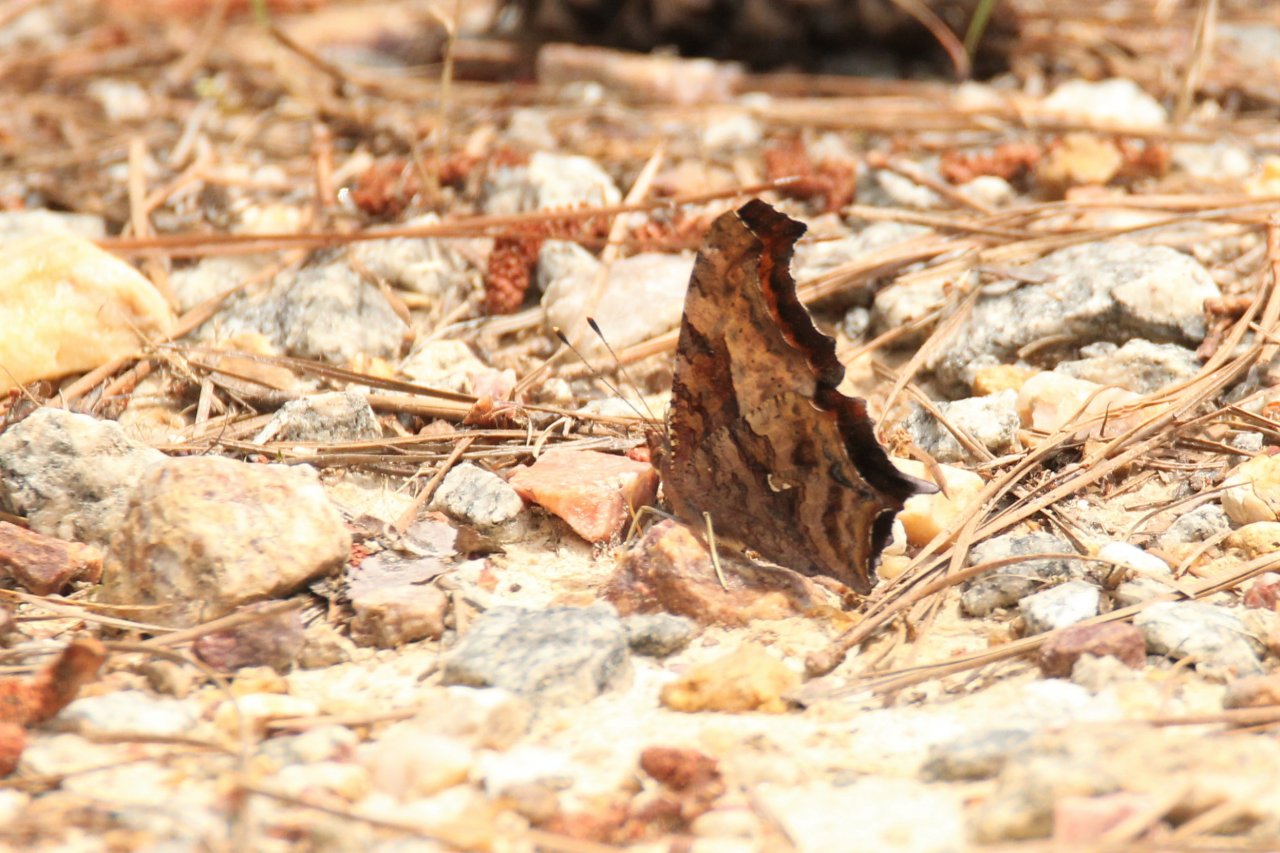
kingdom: Animalia
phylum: Arthropoda
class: Insecta
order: Lepidoptera
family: Nymphalidae
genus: Polygonia
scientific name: Polygonia interrogationis
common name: Question Mark
